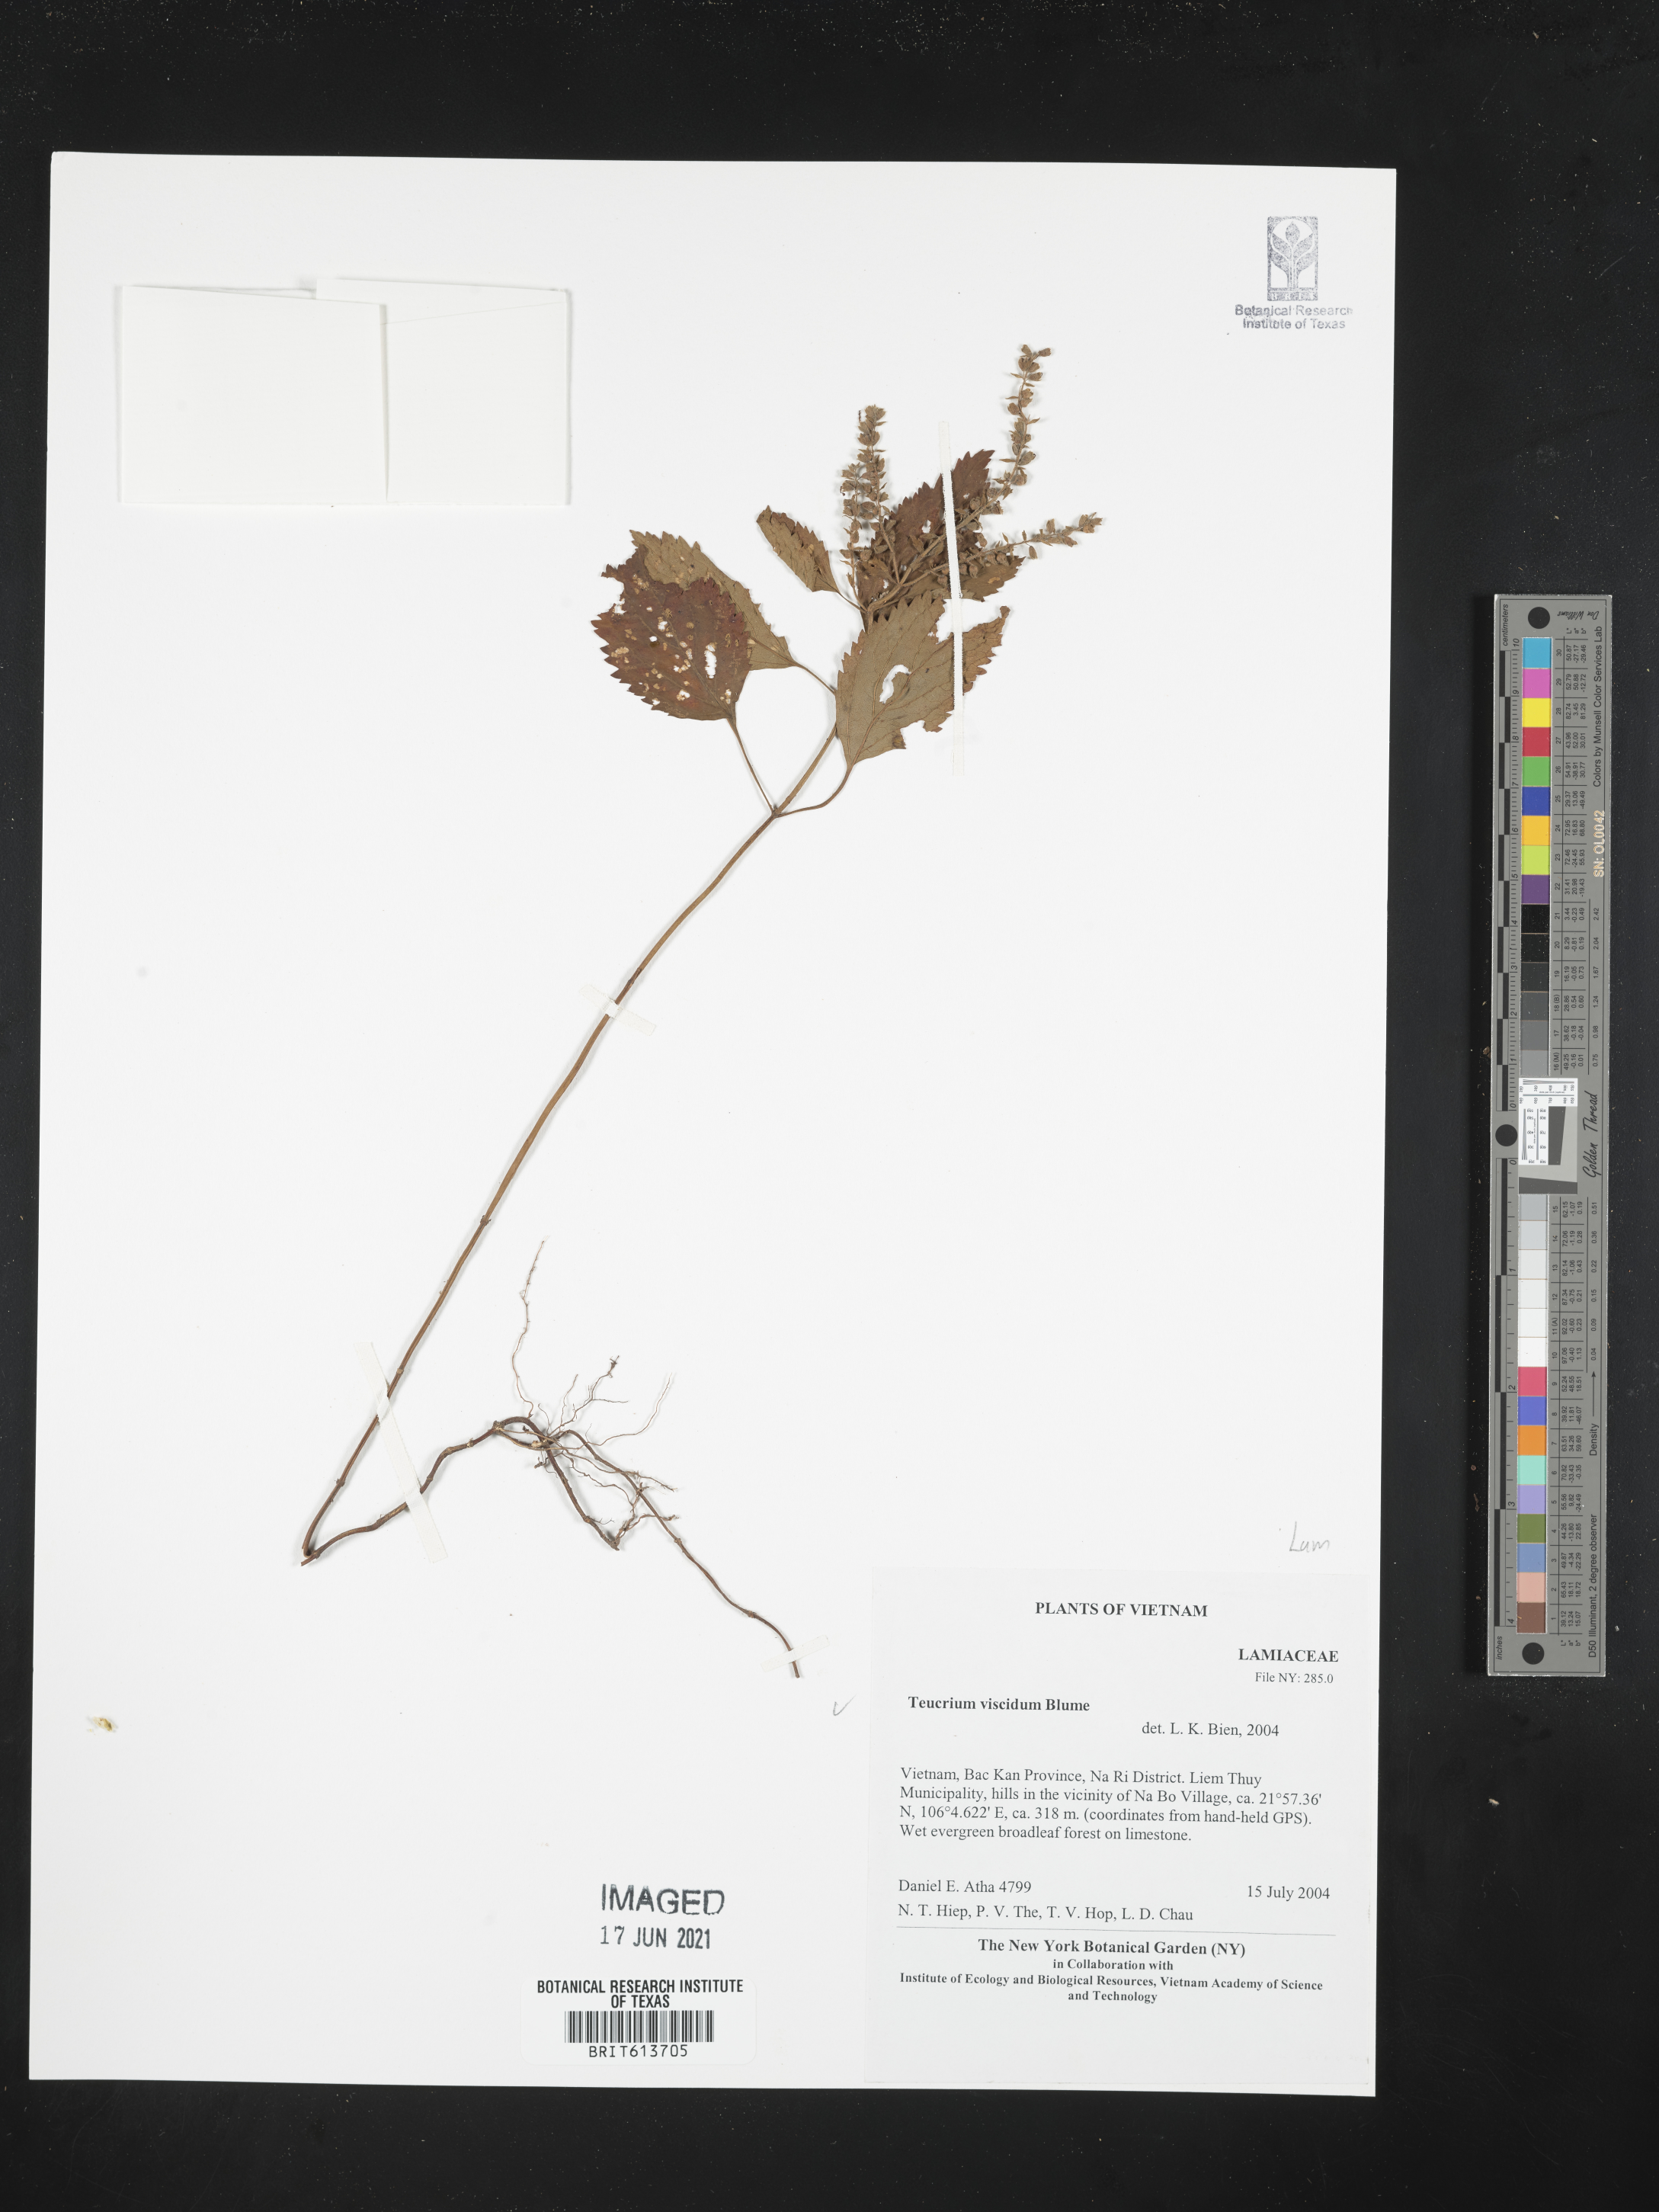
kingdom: Plantae
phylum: Tracheophyta
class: Magnoliopsida
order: Lamiales
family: Lamiaceae
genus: Teucrium
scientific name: Teucrium viscidum
